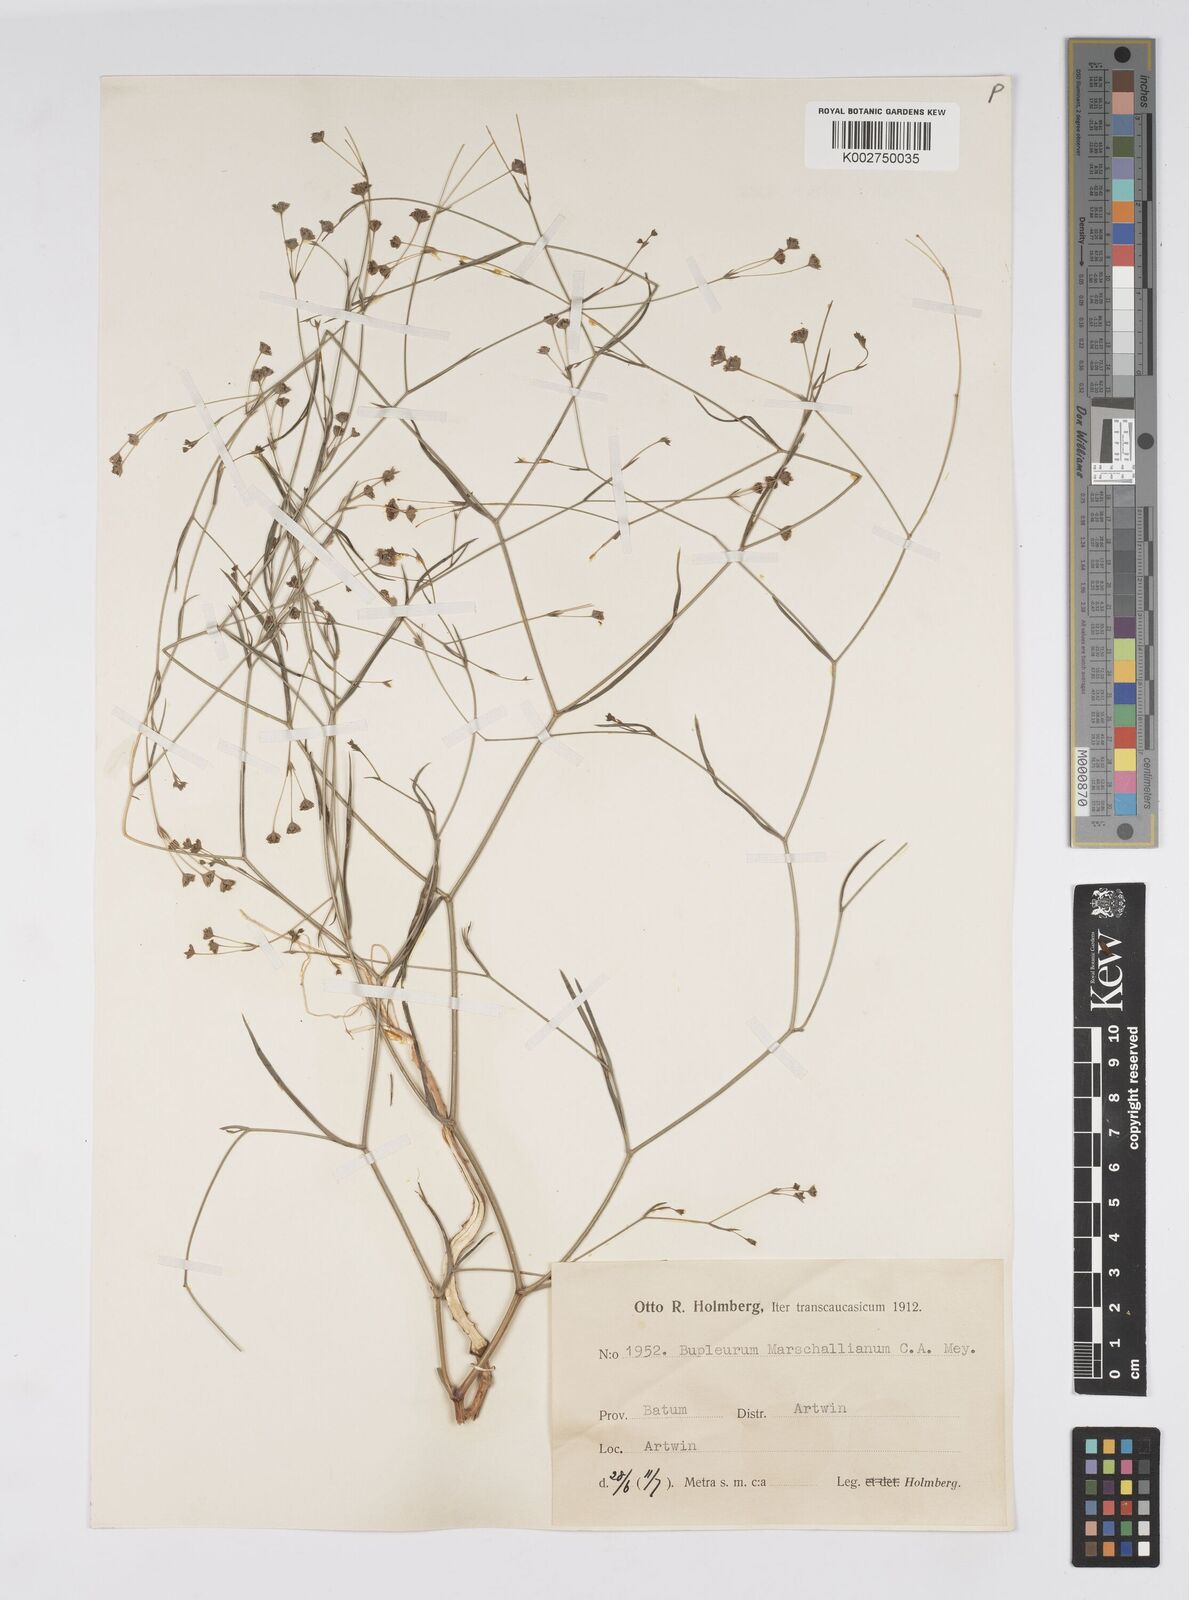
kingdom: Plantae
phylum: Tracheophyta
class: Magnoliopsida
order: Apiales
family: Apiaceae
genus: Bupleurum
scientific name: Bupleurum marschallianum
